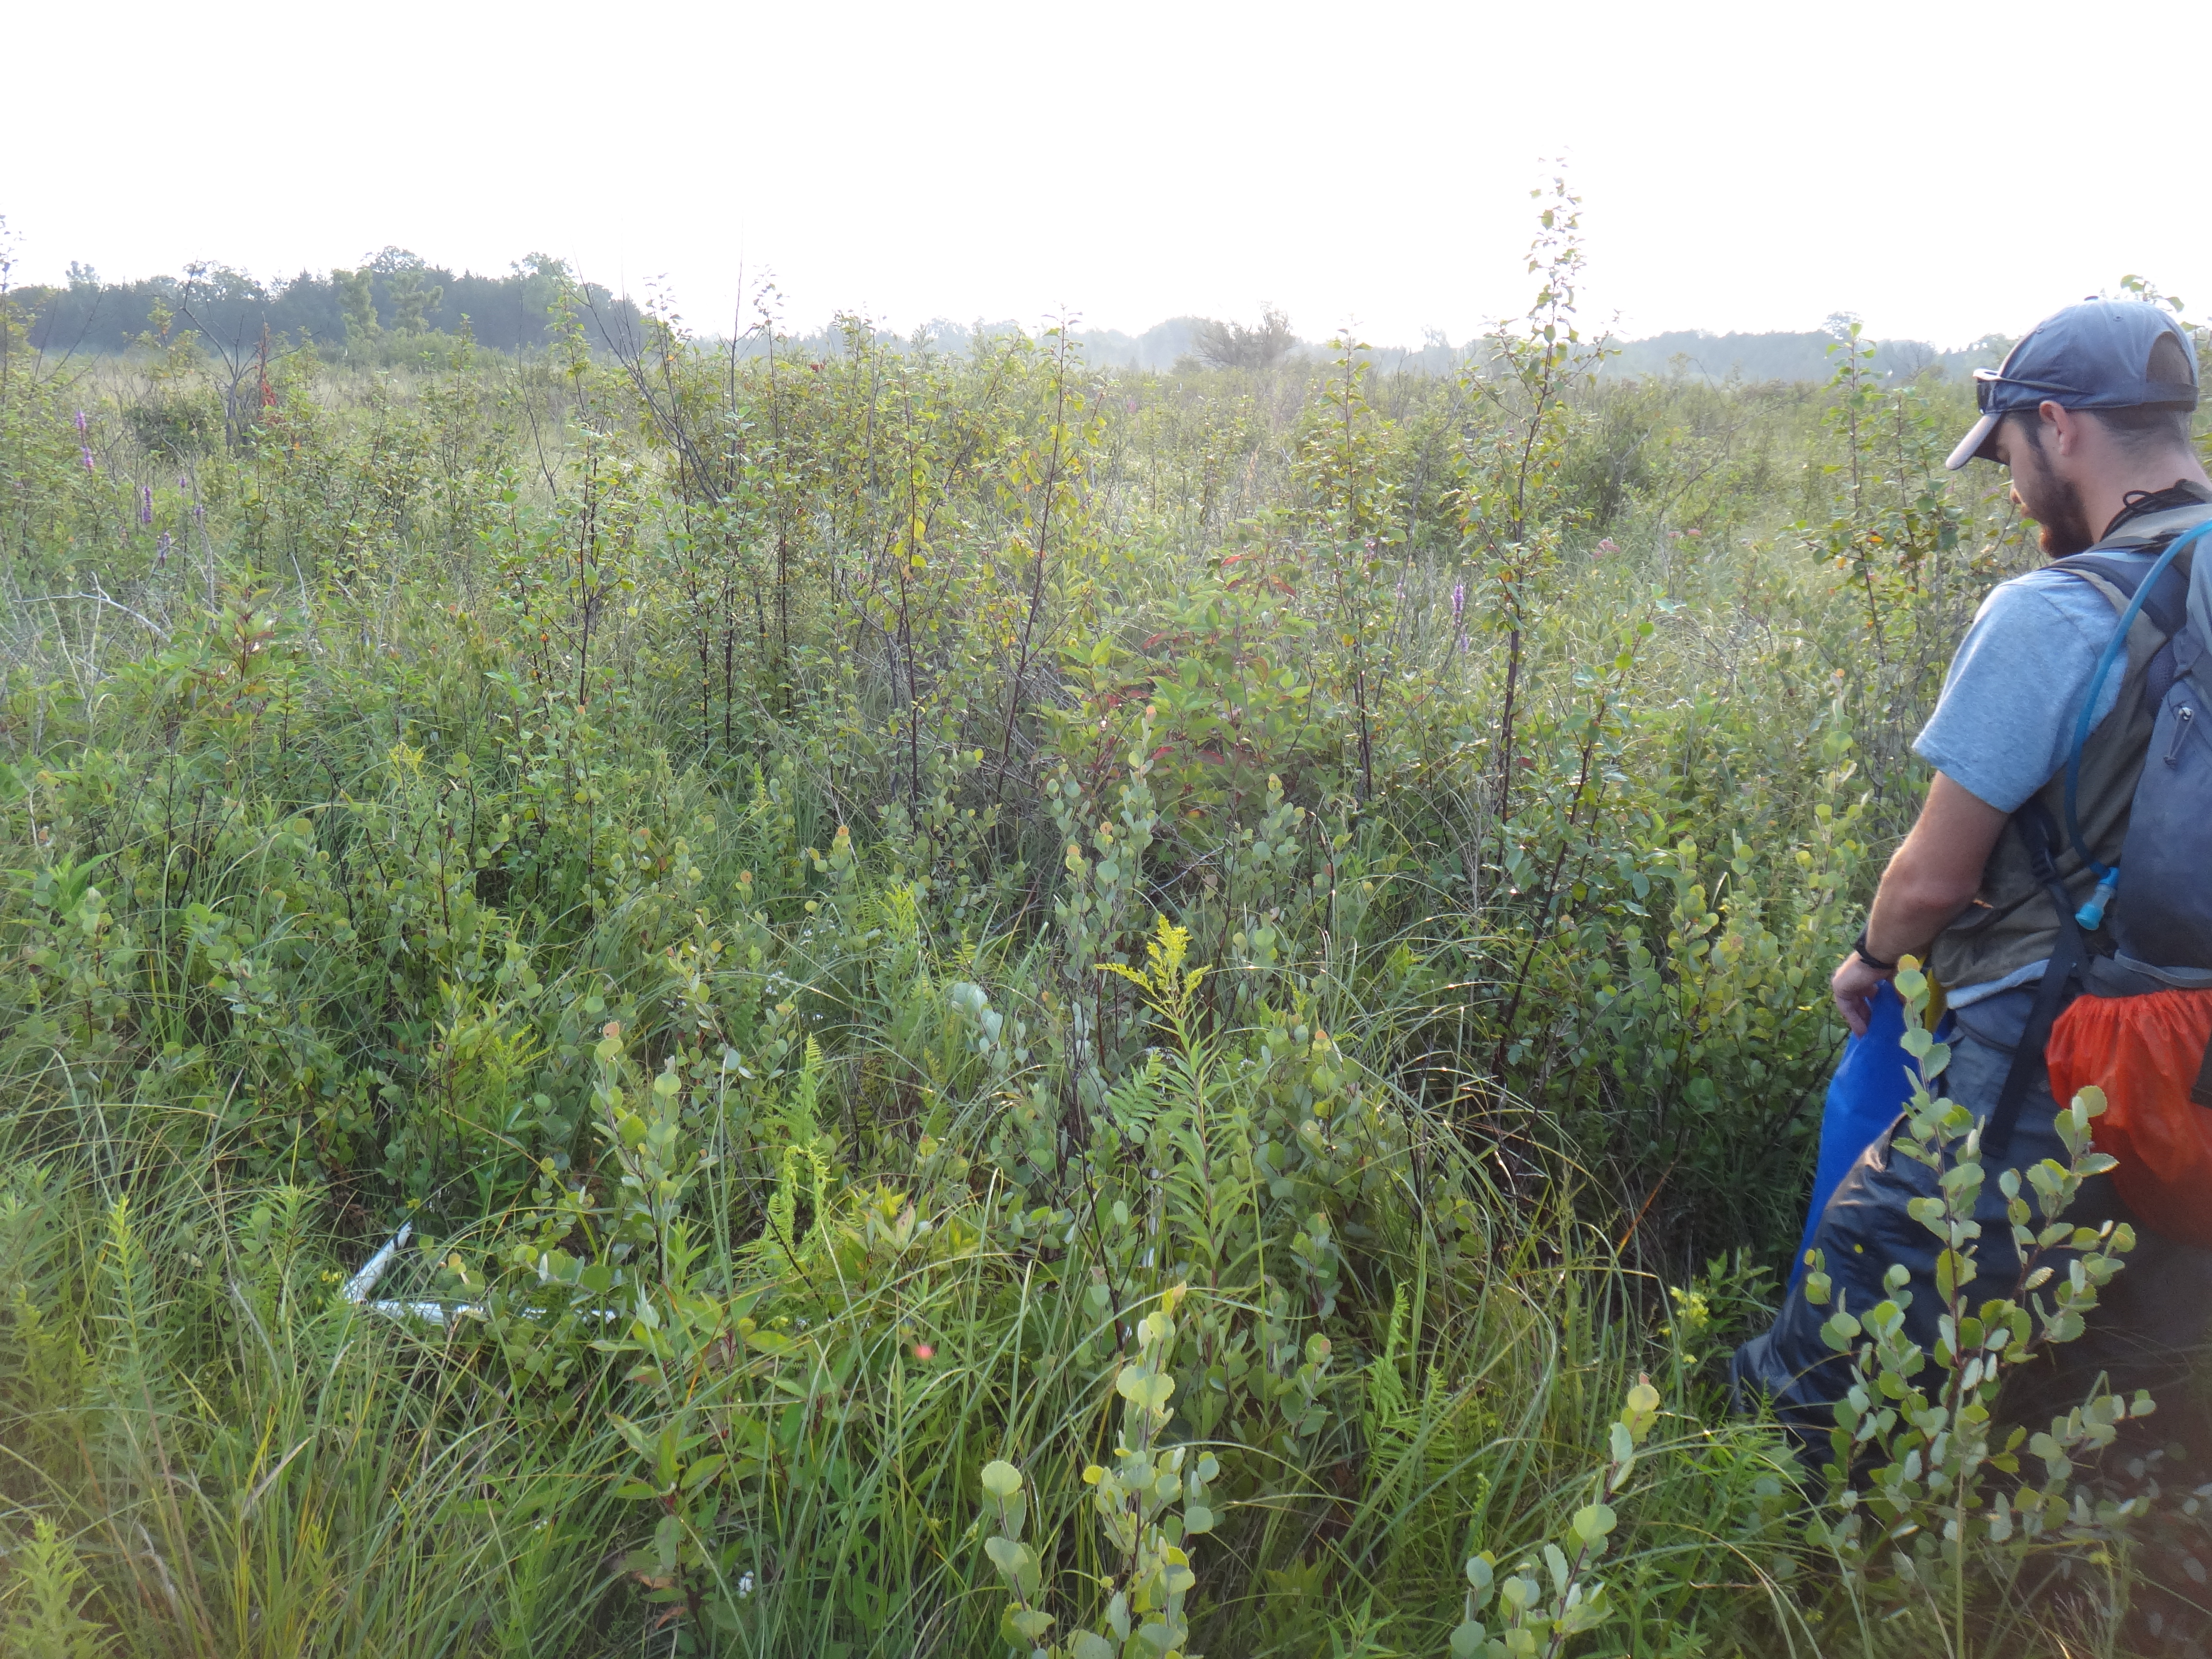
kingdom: Plantae
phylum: Tracheophyta
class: Magnoliopsida
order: Rosales
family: Rhamnaceae
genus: Frangula
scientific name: Frangula alnus
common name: Alder buckthorn
